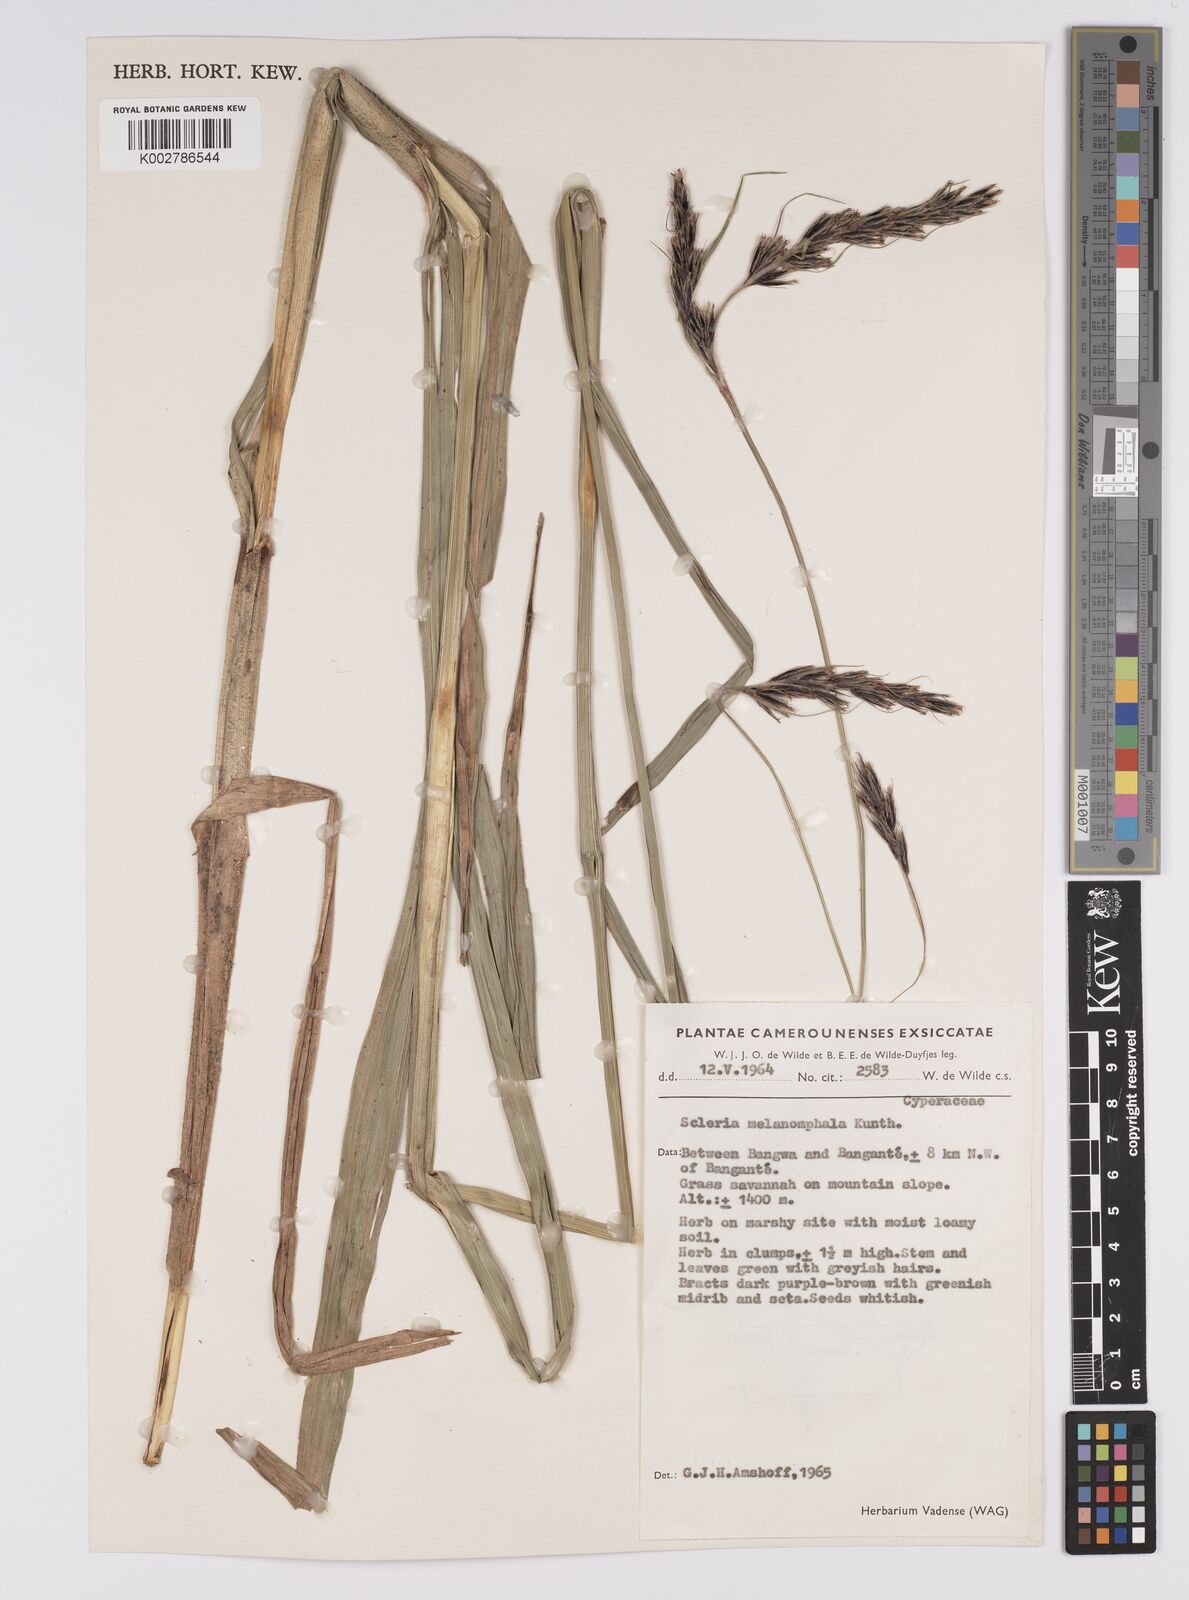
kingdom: Plantae
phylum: Tracheophyta
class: Liliopsida
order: Poales
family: Cyperaceae
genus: Scleria
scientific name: Scleria melanomphala
